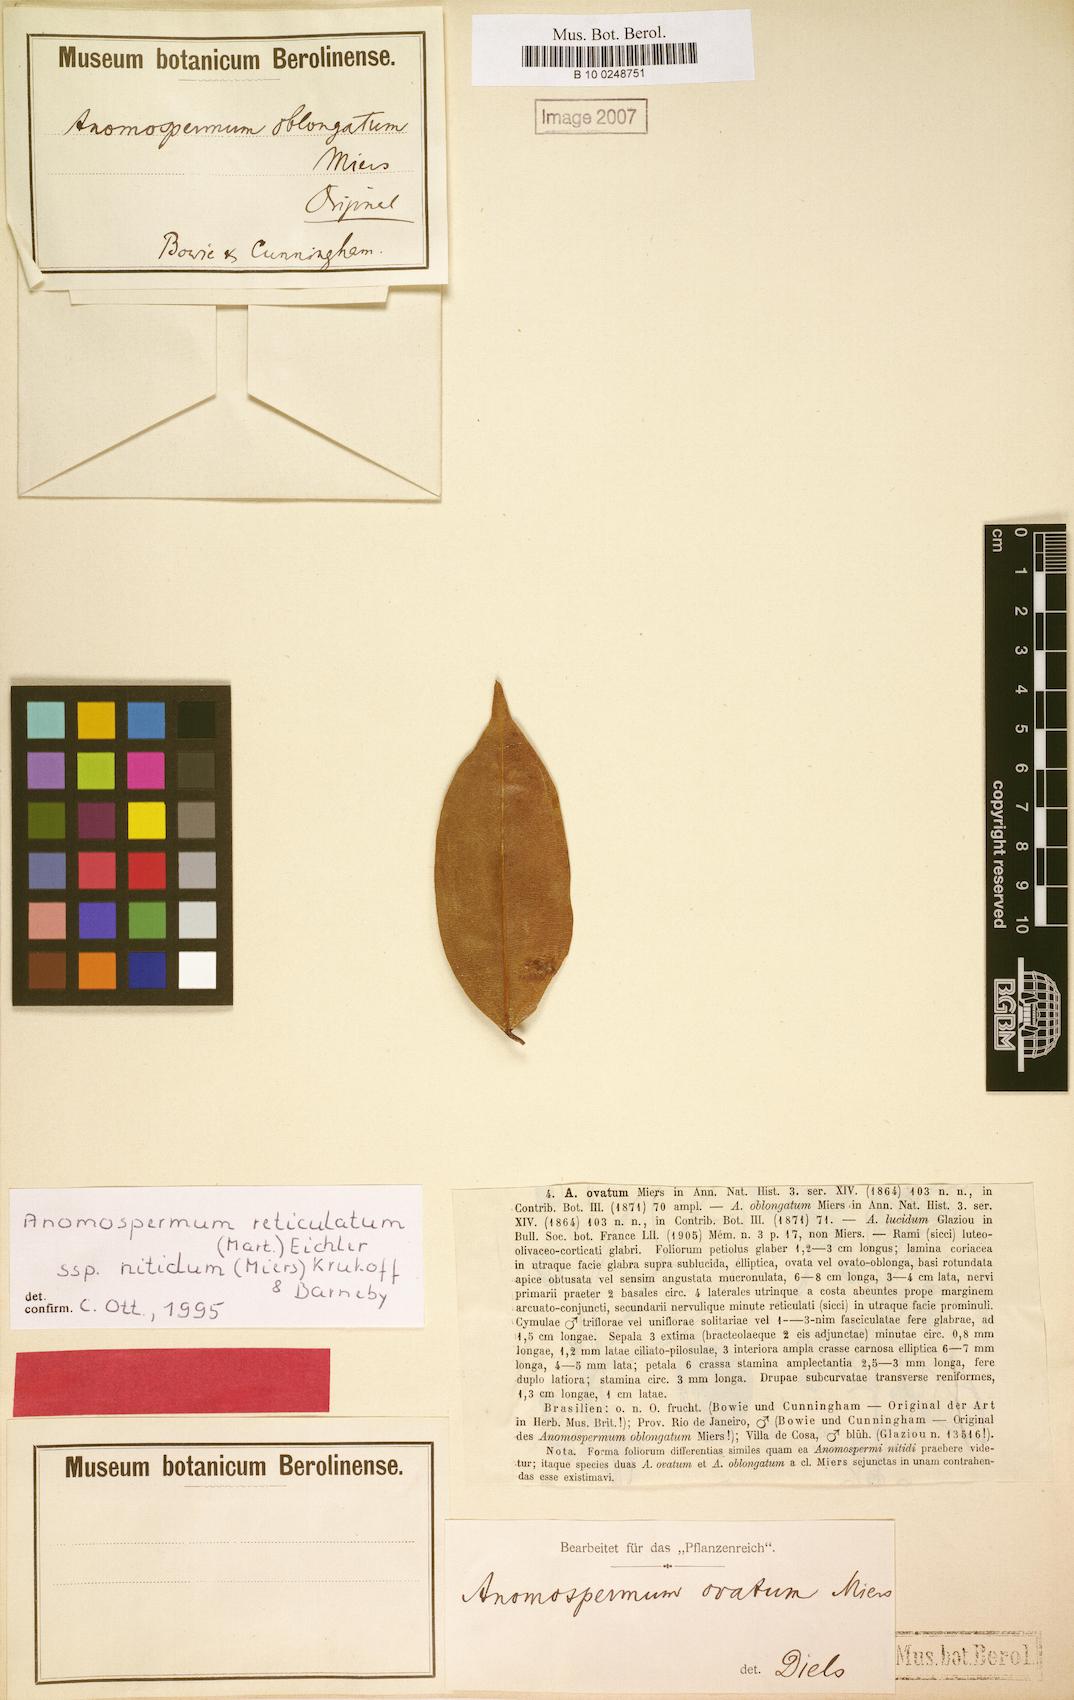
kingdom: Plantae
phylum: Tracheophyta
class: Magnoliopsida
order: Ranunculales
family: Menispermaceae
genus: Anomospermum
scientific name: Anomospermum reticulatum
